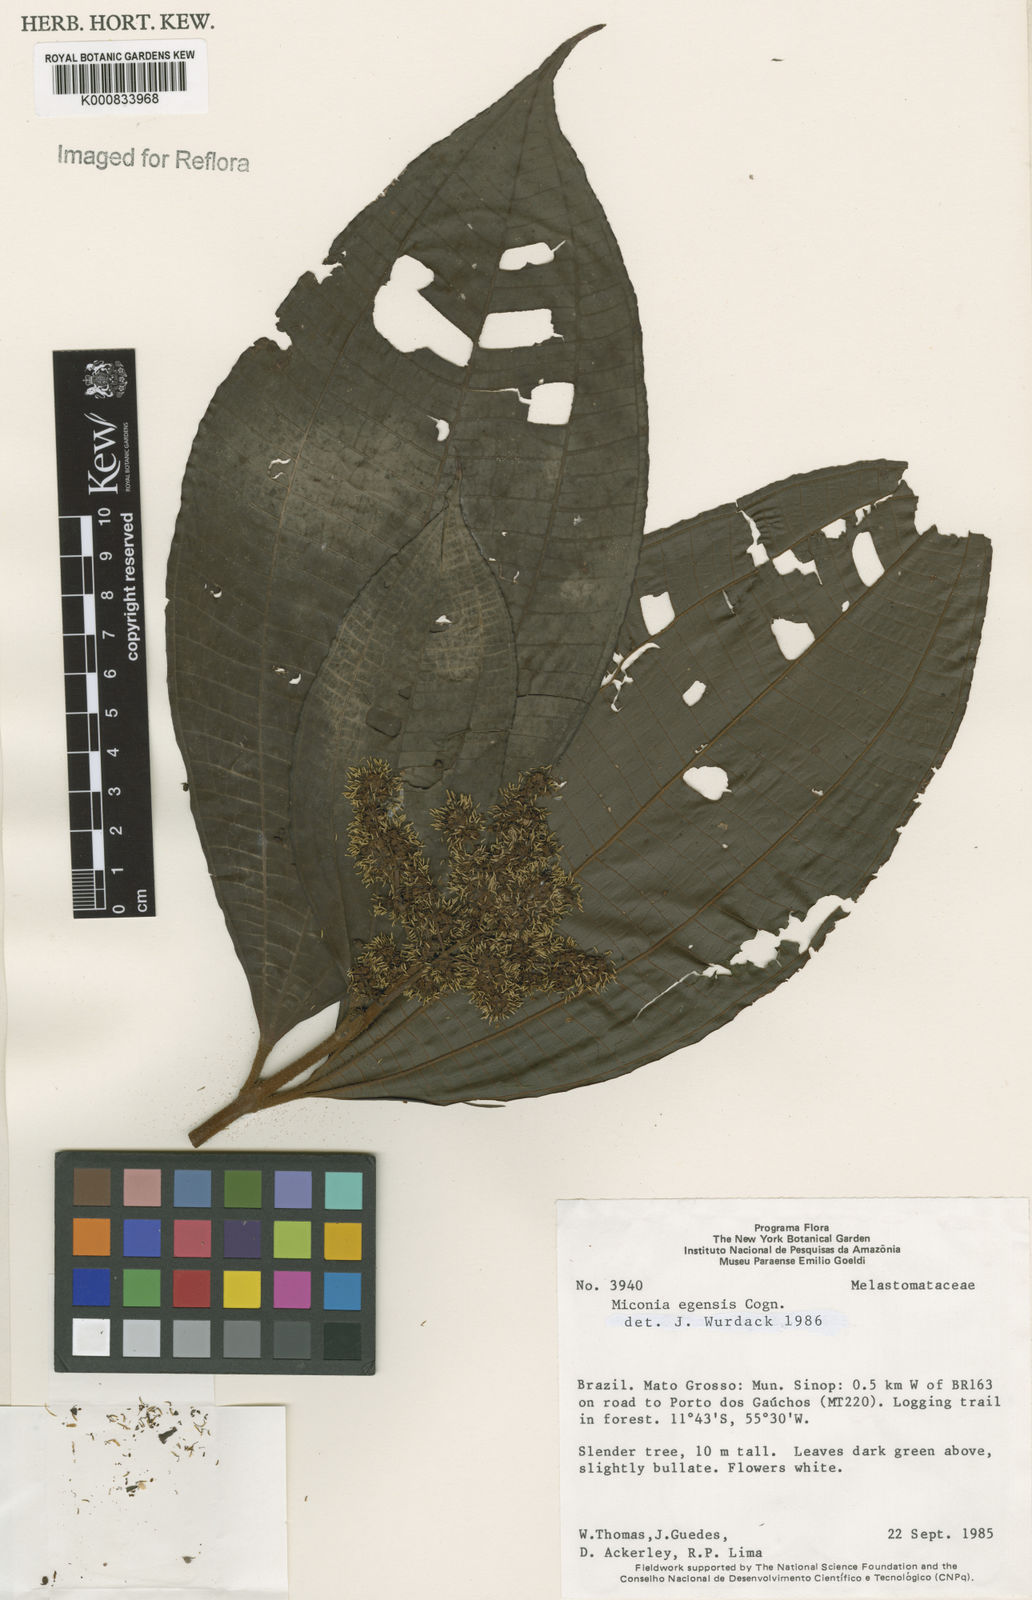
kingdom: Plantae
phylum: Tracheophyta
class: Magnoliopsida
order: Myrtales
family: Melastomataceae
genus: Miconia
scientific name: Miconia egensis
